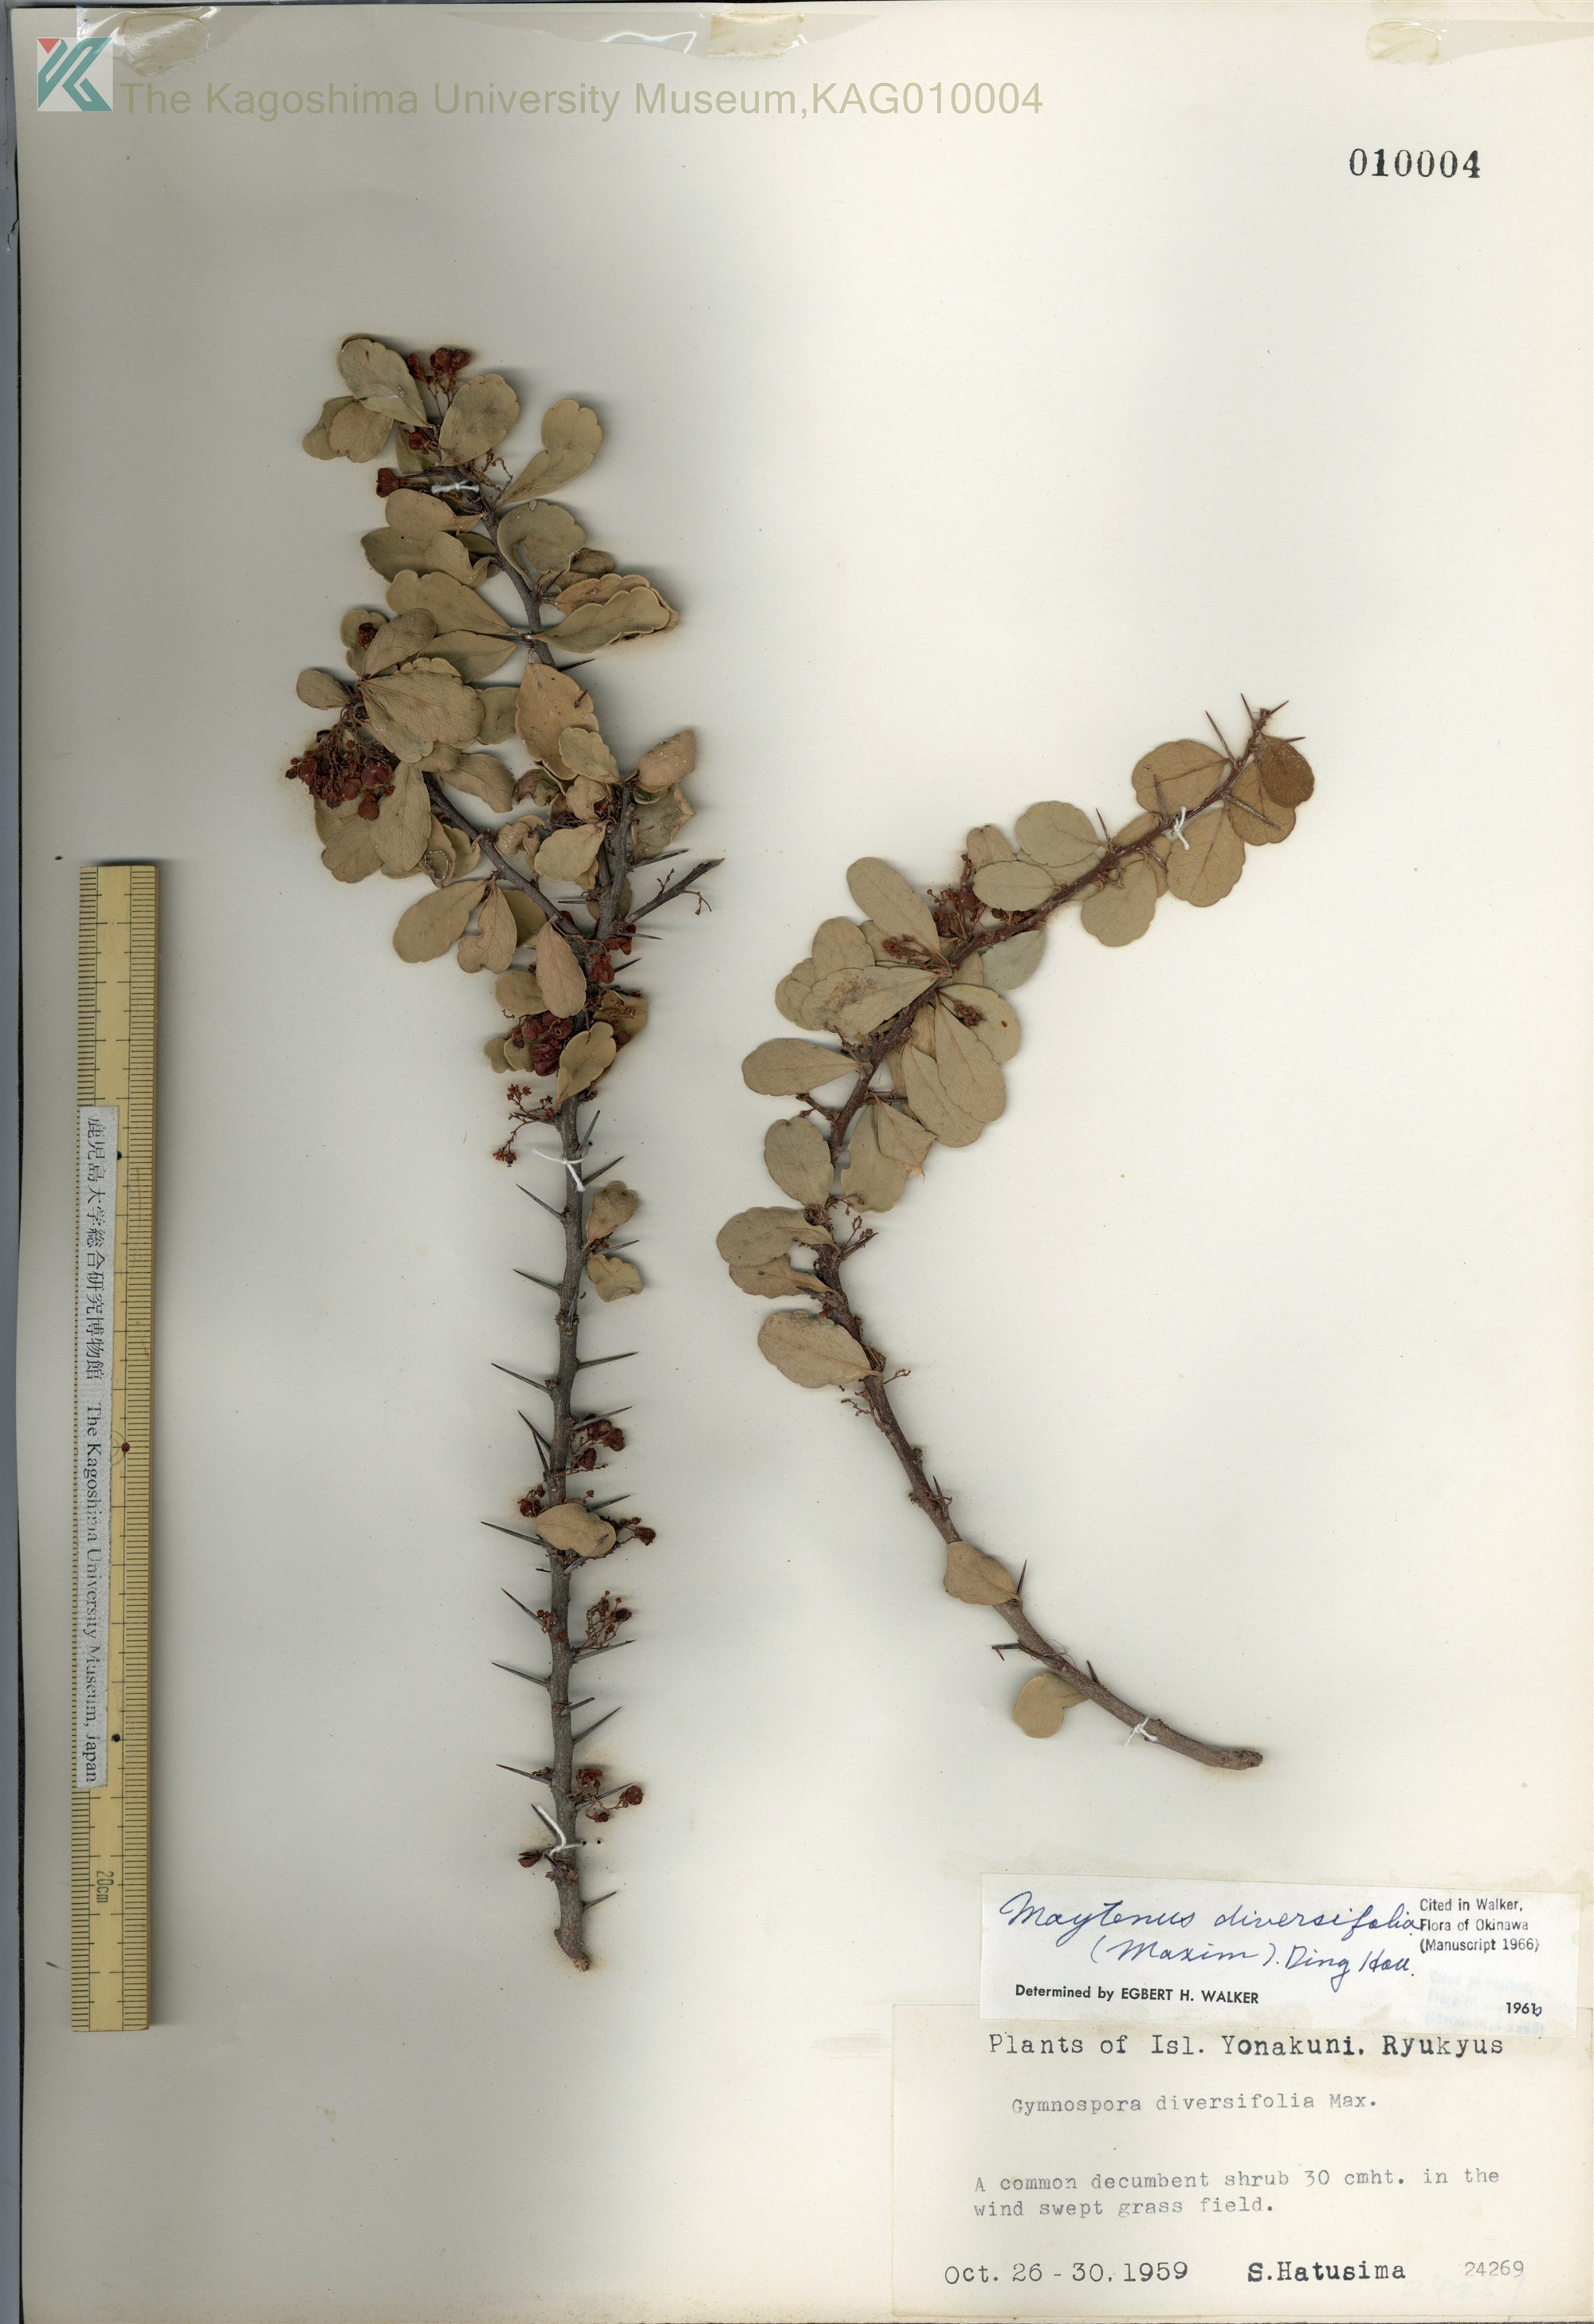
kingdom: Plantae
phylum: Tracheophyta
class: Magnoliopsida
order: Celastrales
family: Celastraceae
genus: Gymnosporia
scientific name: Gymnosporia diversifolia
